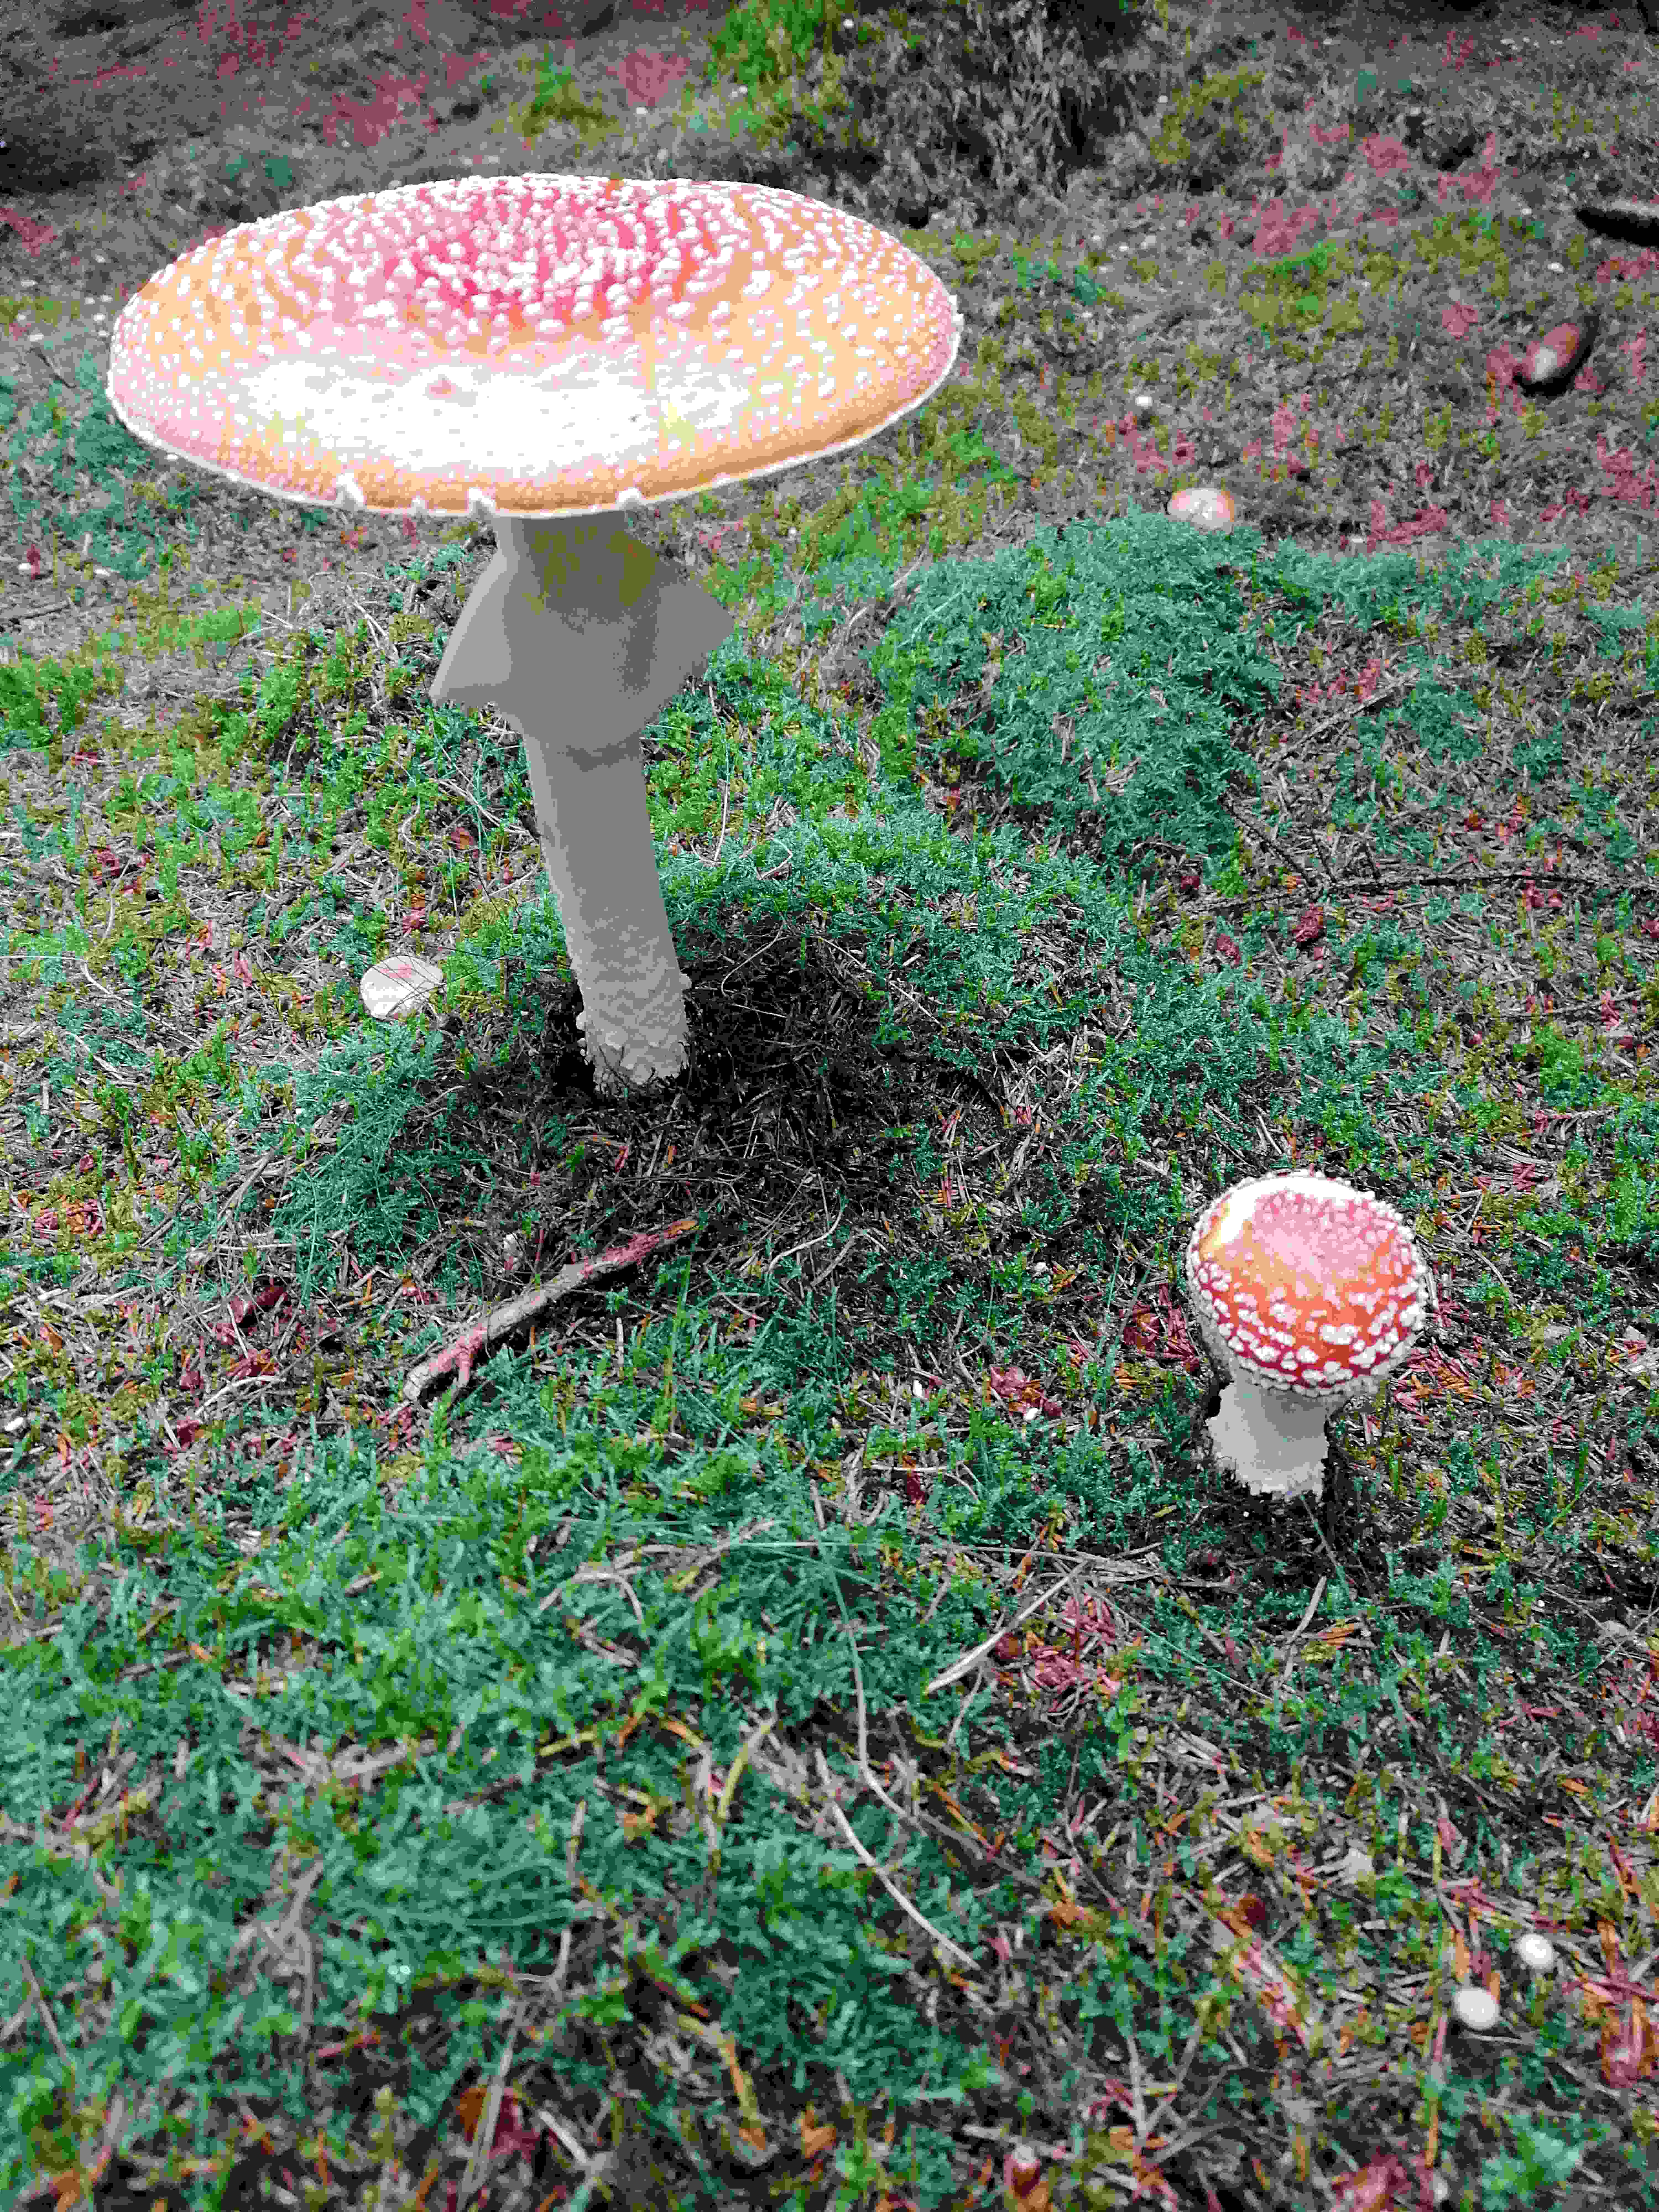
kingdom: Fungi
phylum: Basidiomycota
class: Agaricomycetes
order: Agaricales
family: Amanitaceae
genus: Amanita
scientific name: Amanita muscaria
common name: rød fluesvamp
